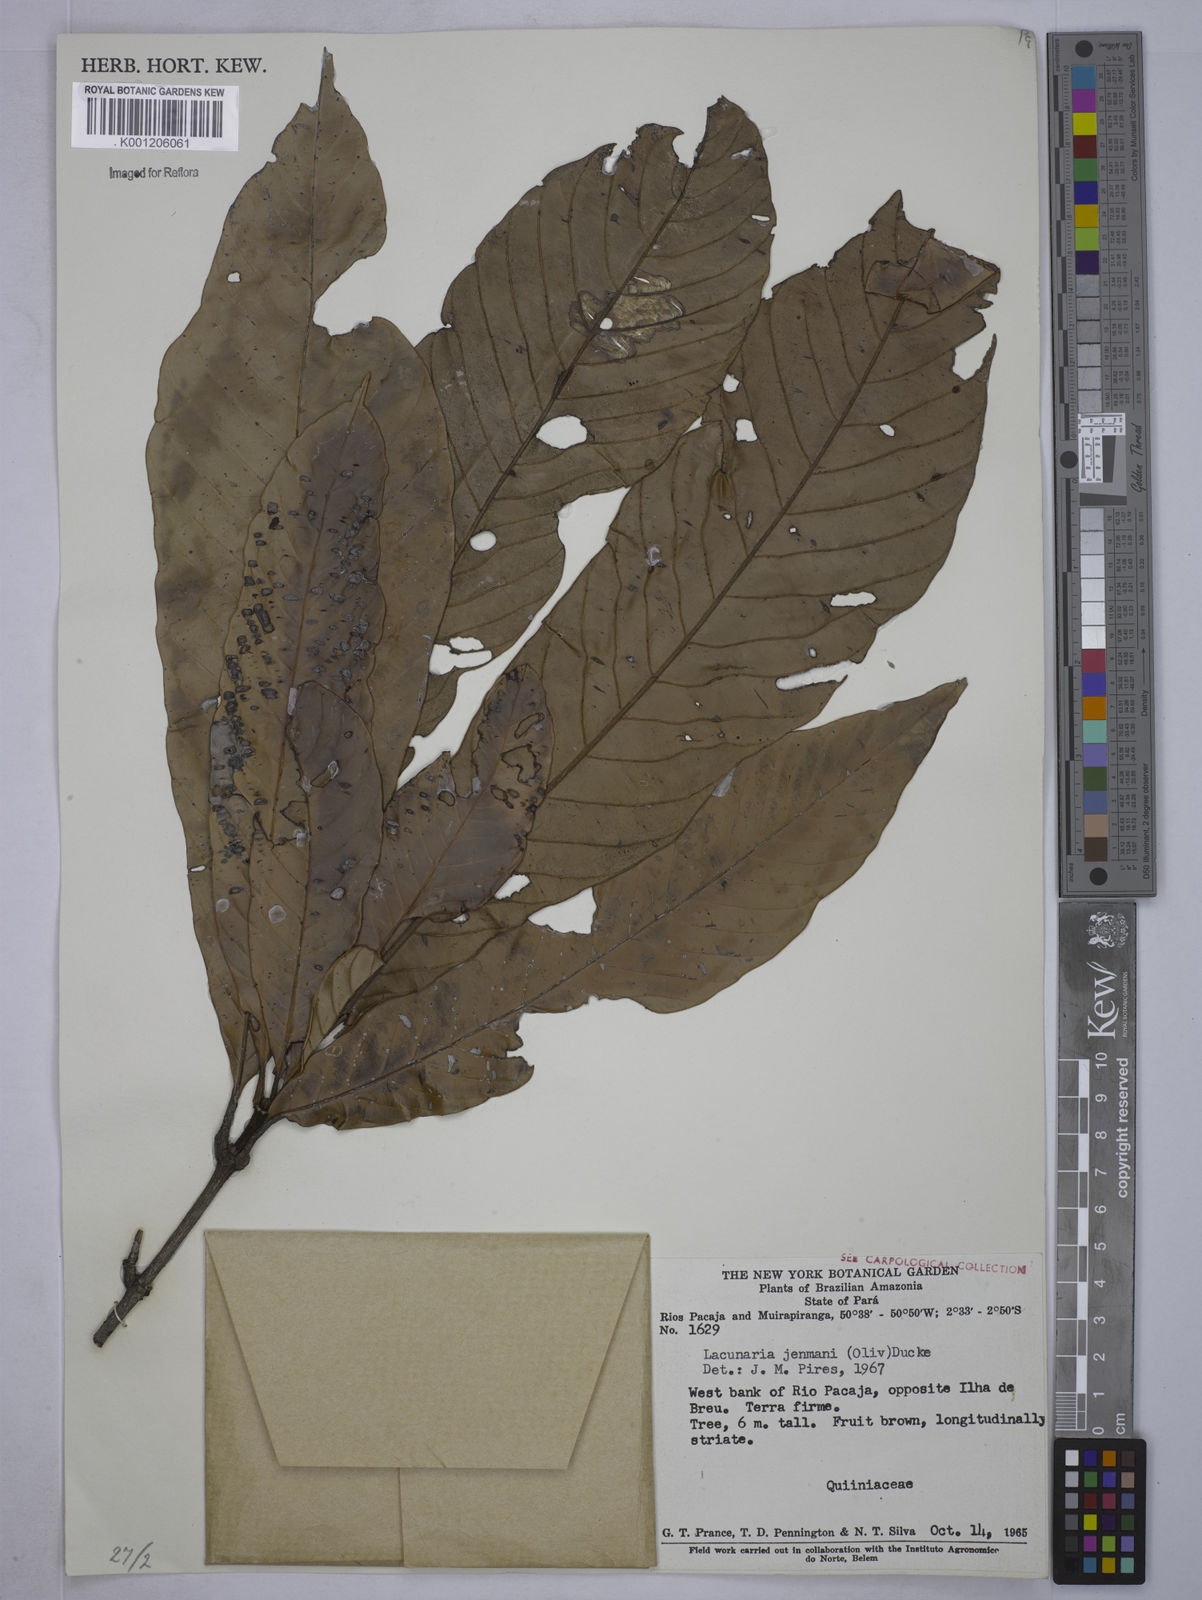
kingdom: Plantae
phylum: Tracheophyta
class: Magnoliopsida
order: Malpighiales
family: Quiinaceae
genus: Lacunaria
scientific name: Lacunaria jenmanii
